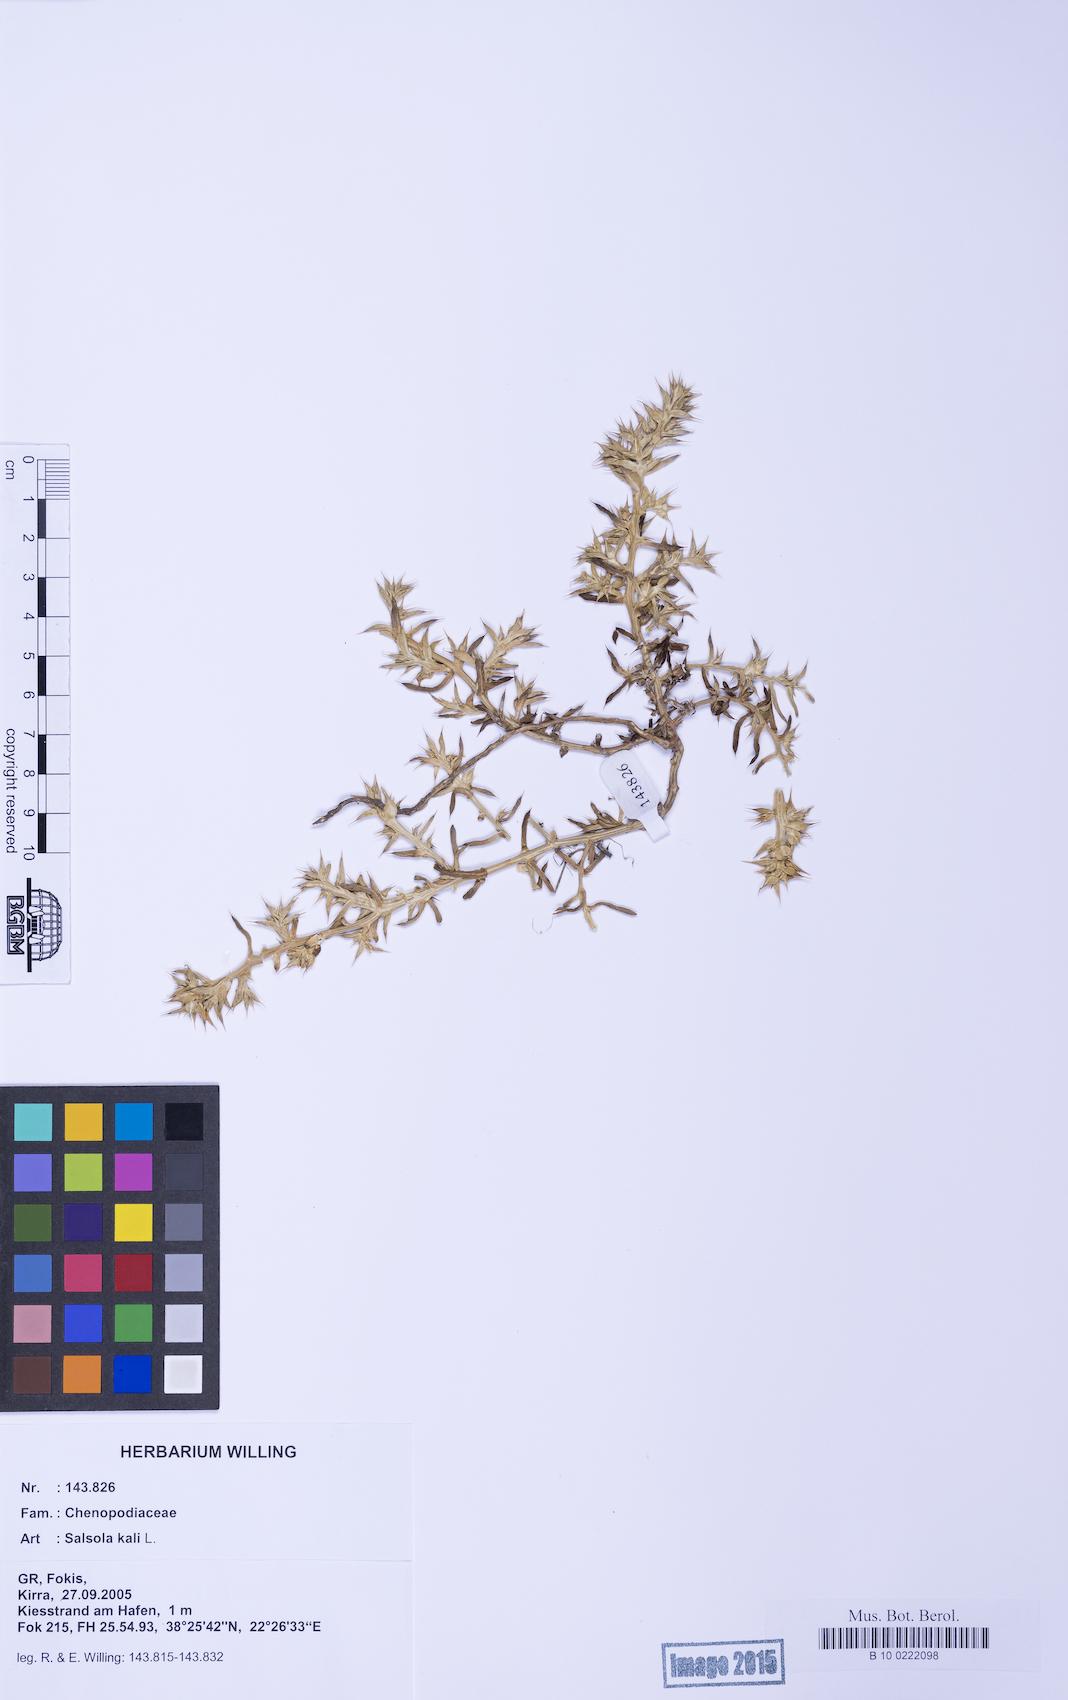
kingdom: Plantae
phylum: Tracheophyta
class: Magnoliopsida
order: Caryophyllales
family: Amaranthaceae
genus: Salsola
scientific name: Salsola kali
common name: Saltwort
